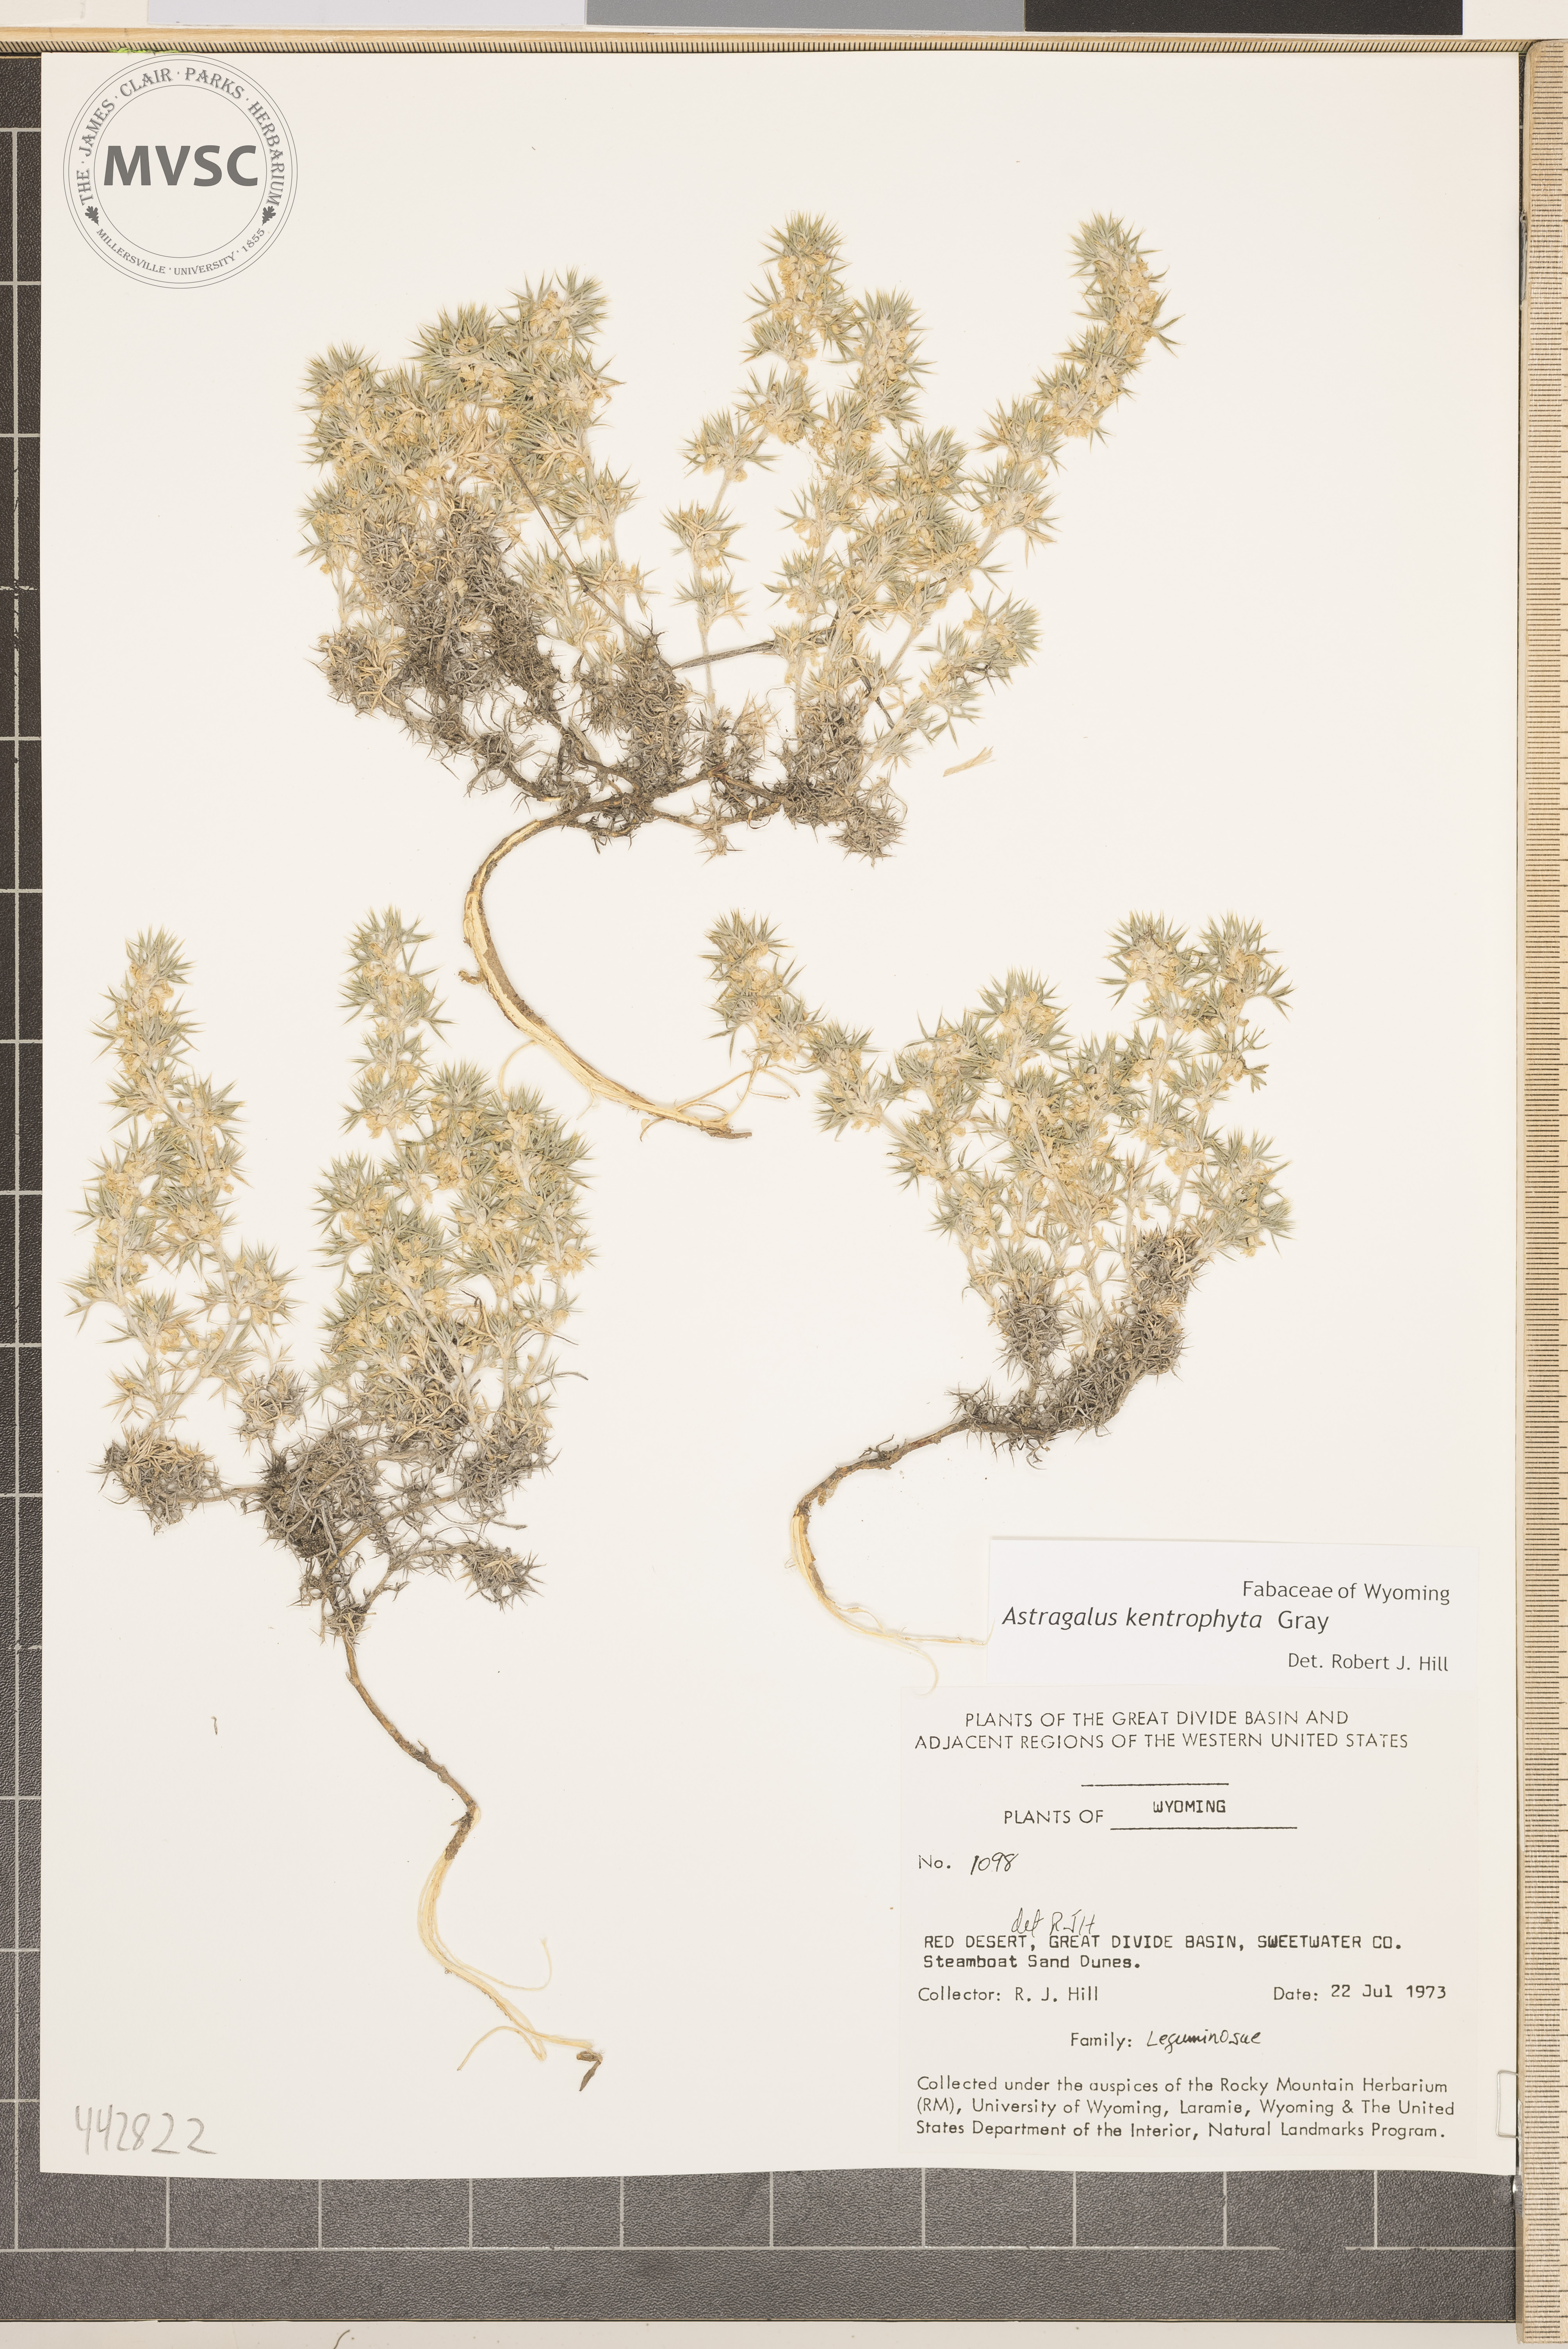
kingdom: Plantae
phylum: Tracheophyta
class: Magnoliopsida
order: Fabales
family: Fabaceae
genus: Astragalus
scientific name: Astragalus kentrophyta
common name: Prickly milk-vetch
